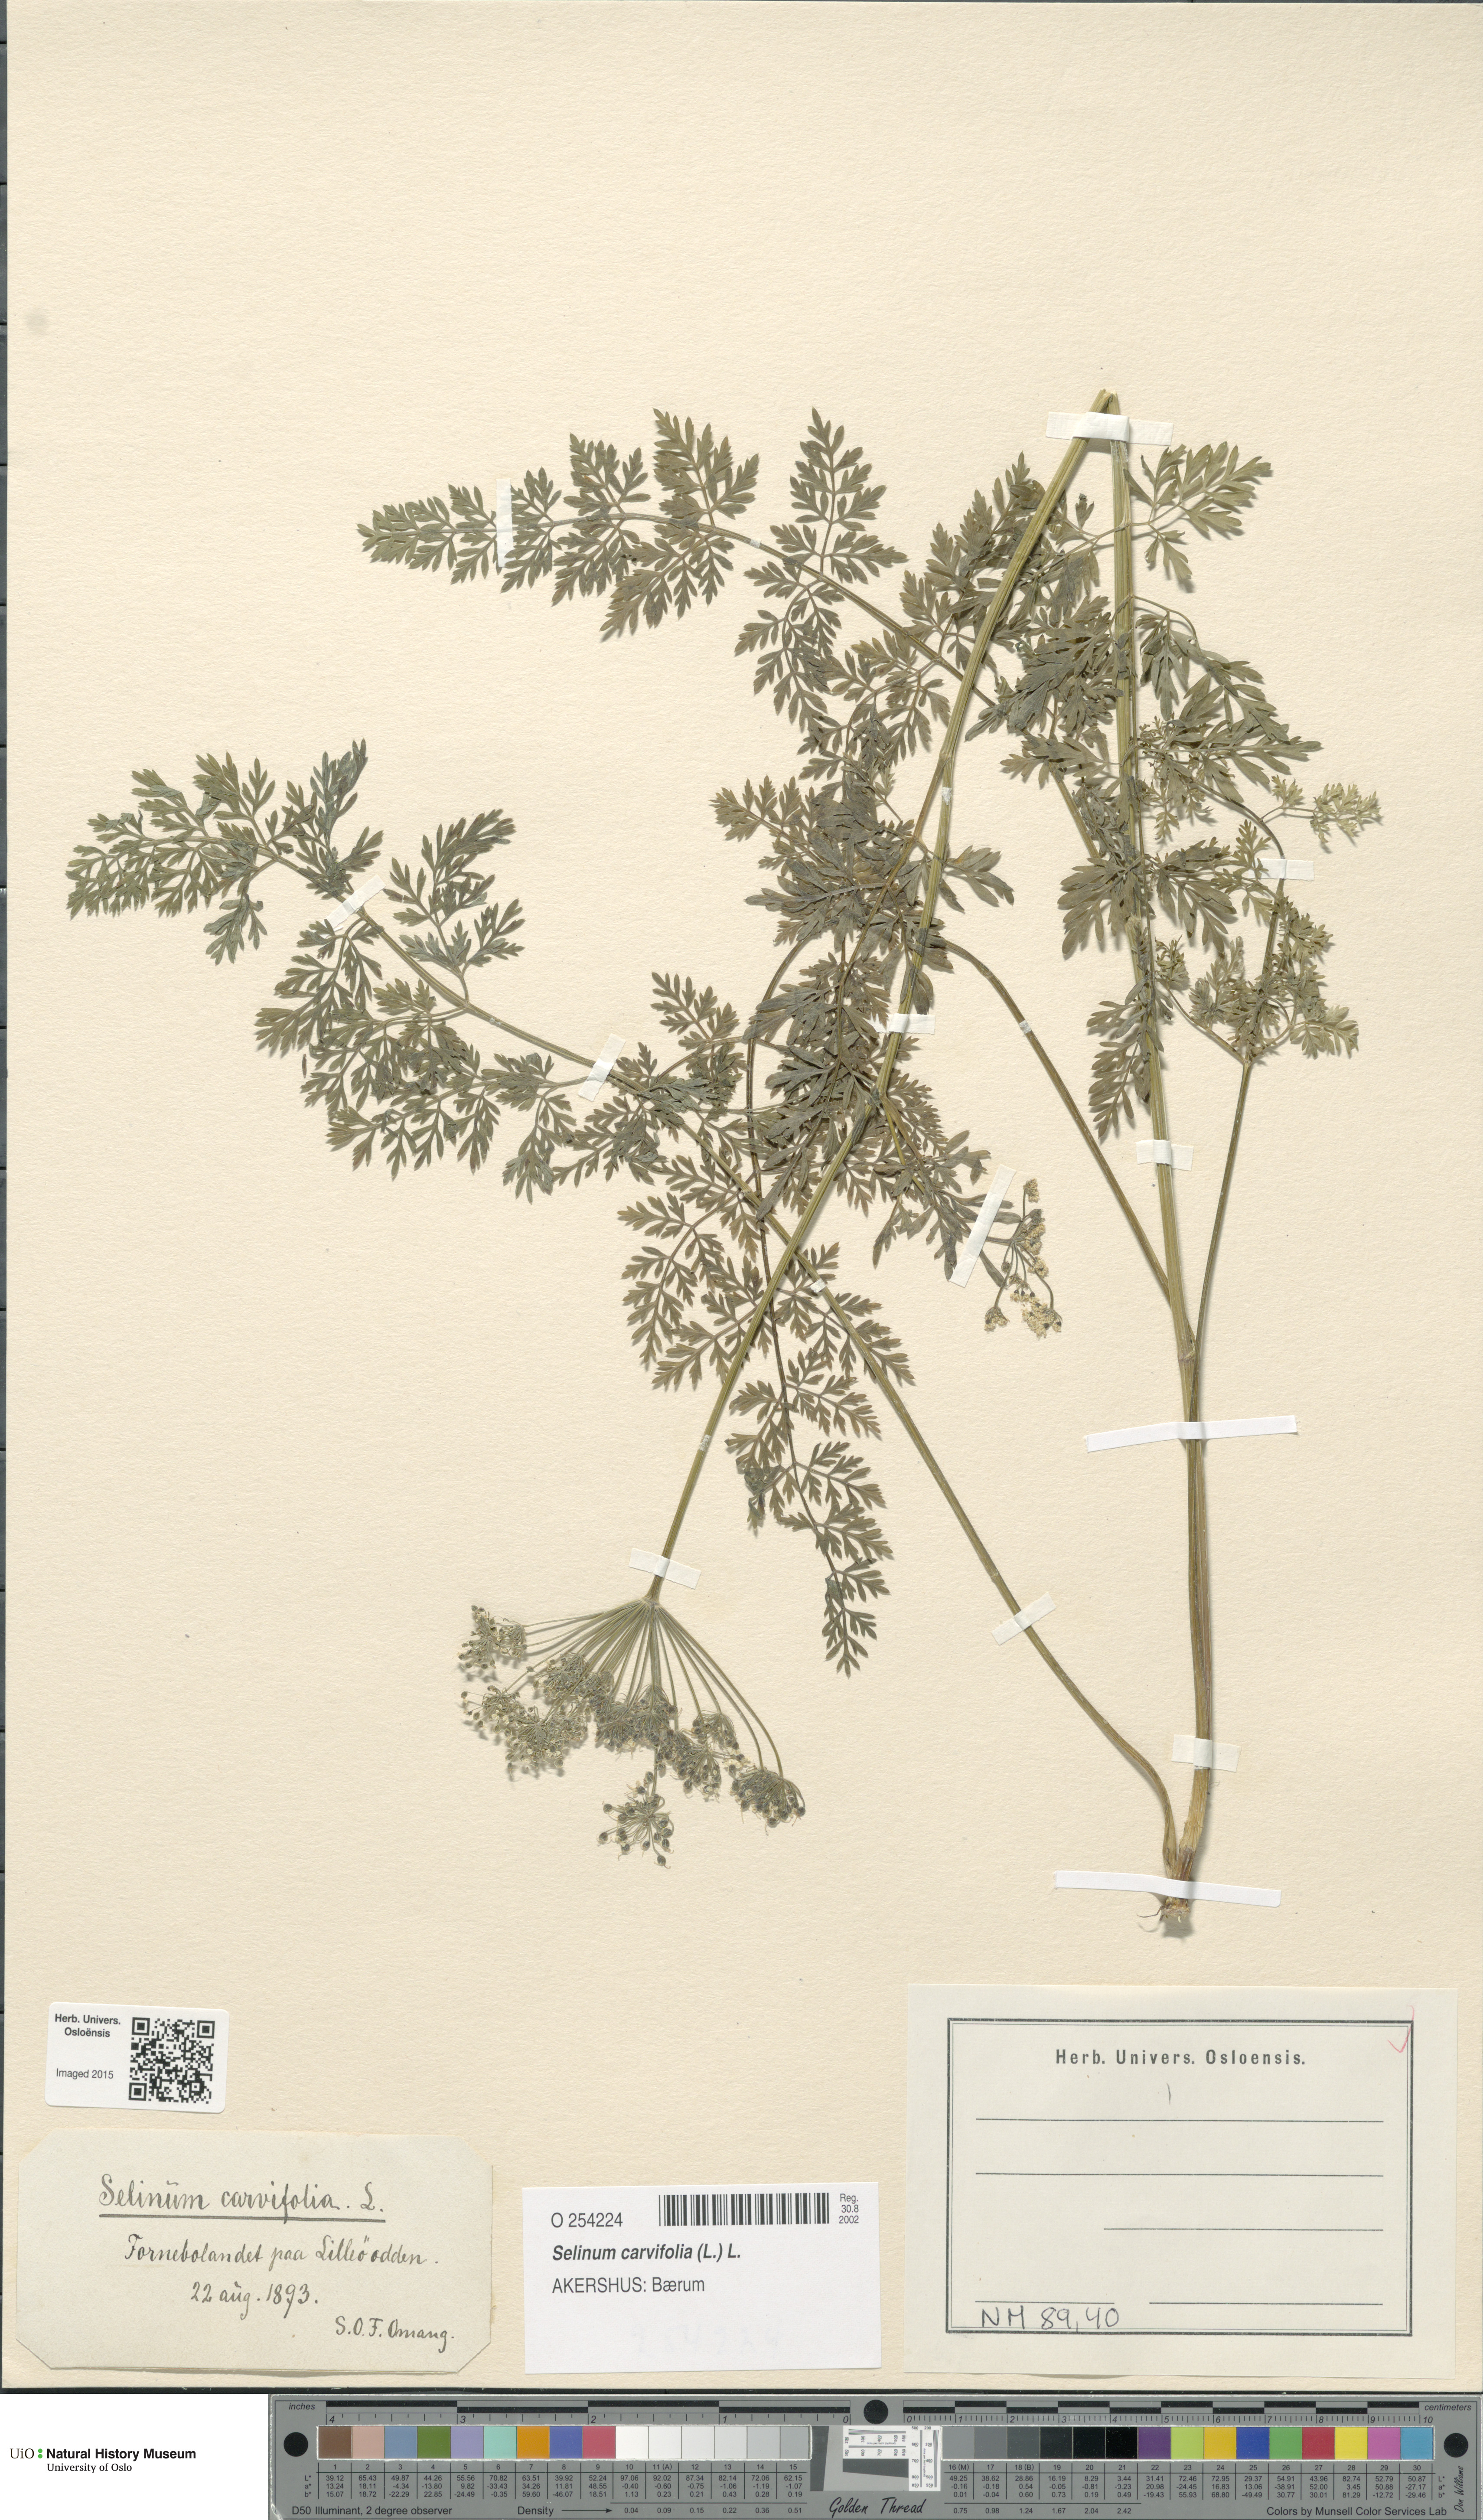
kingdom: Plantae
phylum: Tracheophyta
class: Magnoliopsida
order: Apiales
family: Apiaceae
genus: Selinum
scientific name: Selinum carvifolia
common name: Cambridge milk-parsley
